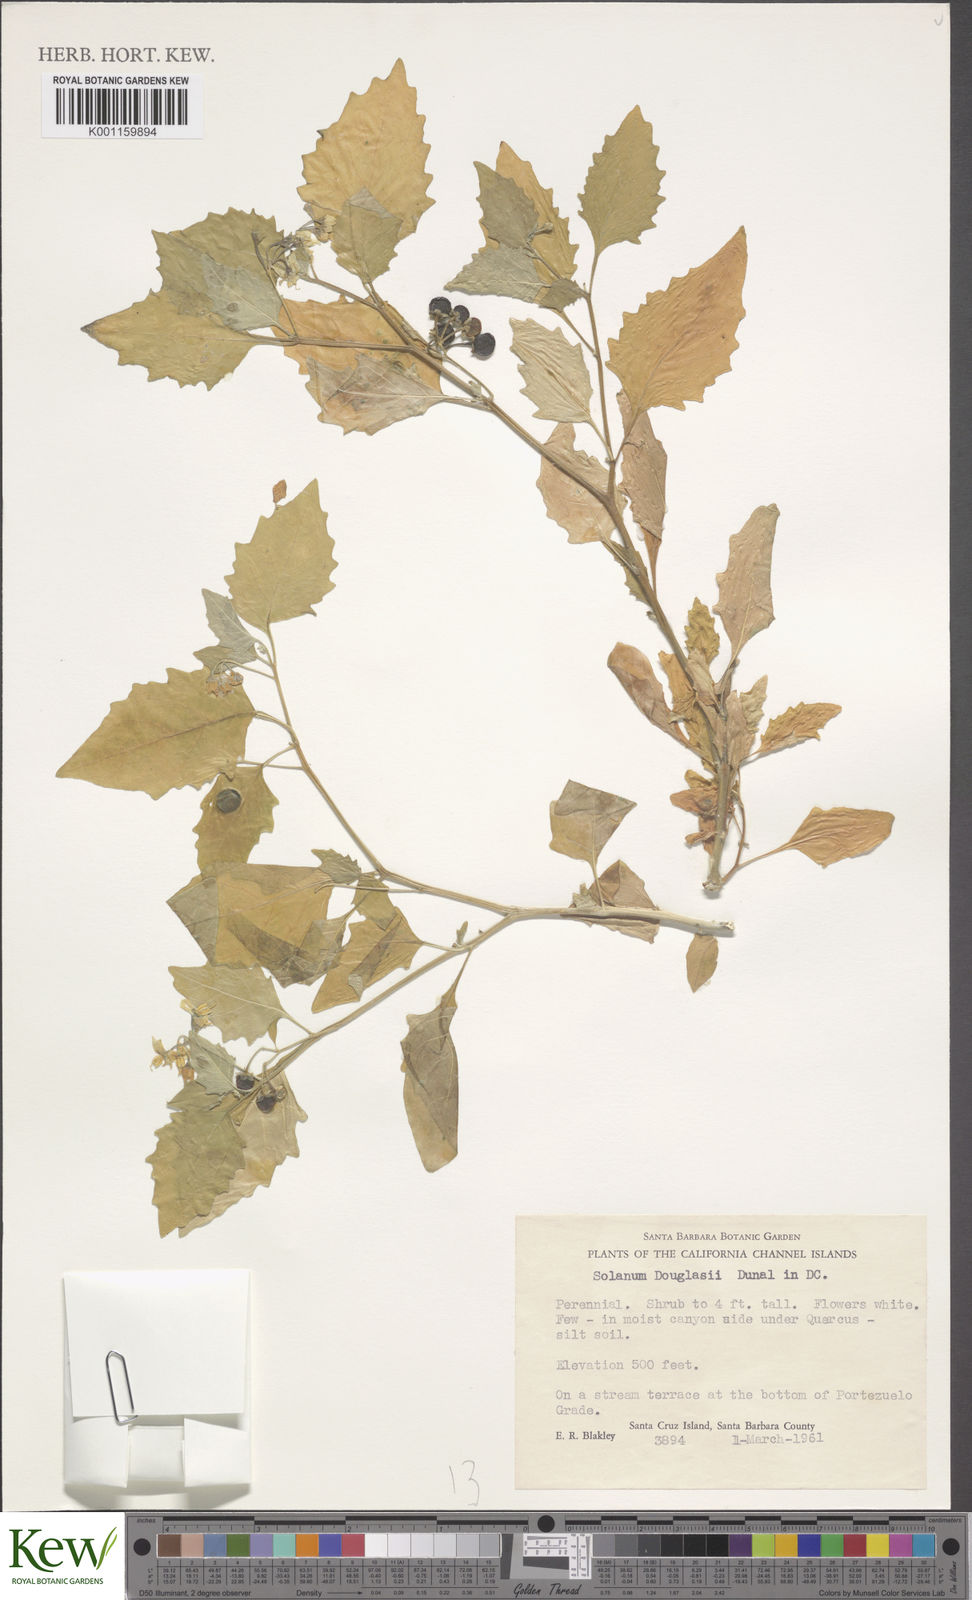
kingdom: Plantae
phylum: Tracheophyta
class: Magnoliopsida
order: Solanales
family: Solanaceae
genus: Solanum
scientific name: Solanum douglasii
